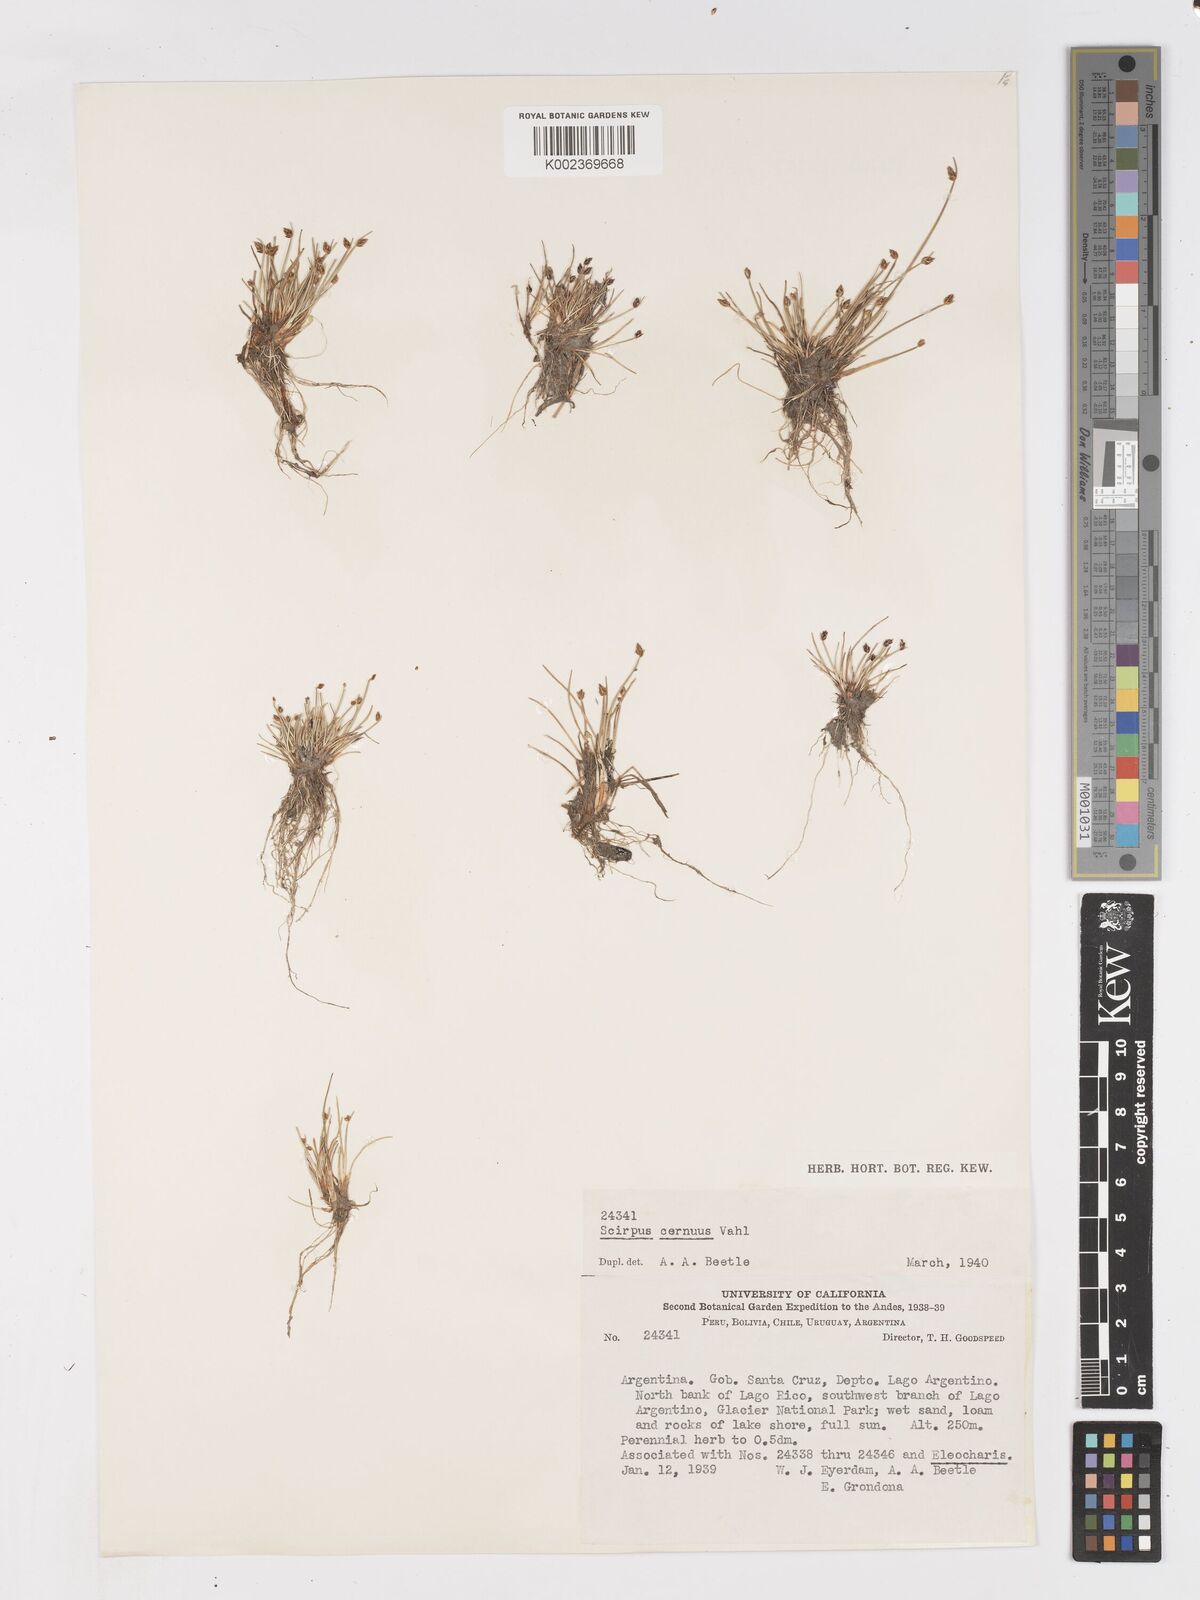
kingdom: Plantae
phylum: Tracheophyta
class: Liliopsida
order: Poales
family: Cyperaceae
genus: Isolepis
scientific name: Isolepis cernua
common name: Slender club-rush
